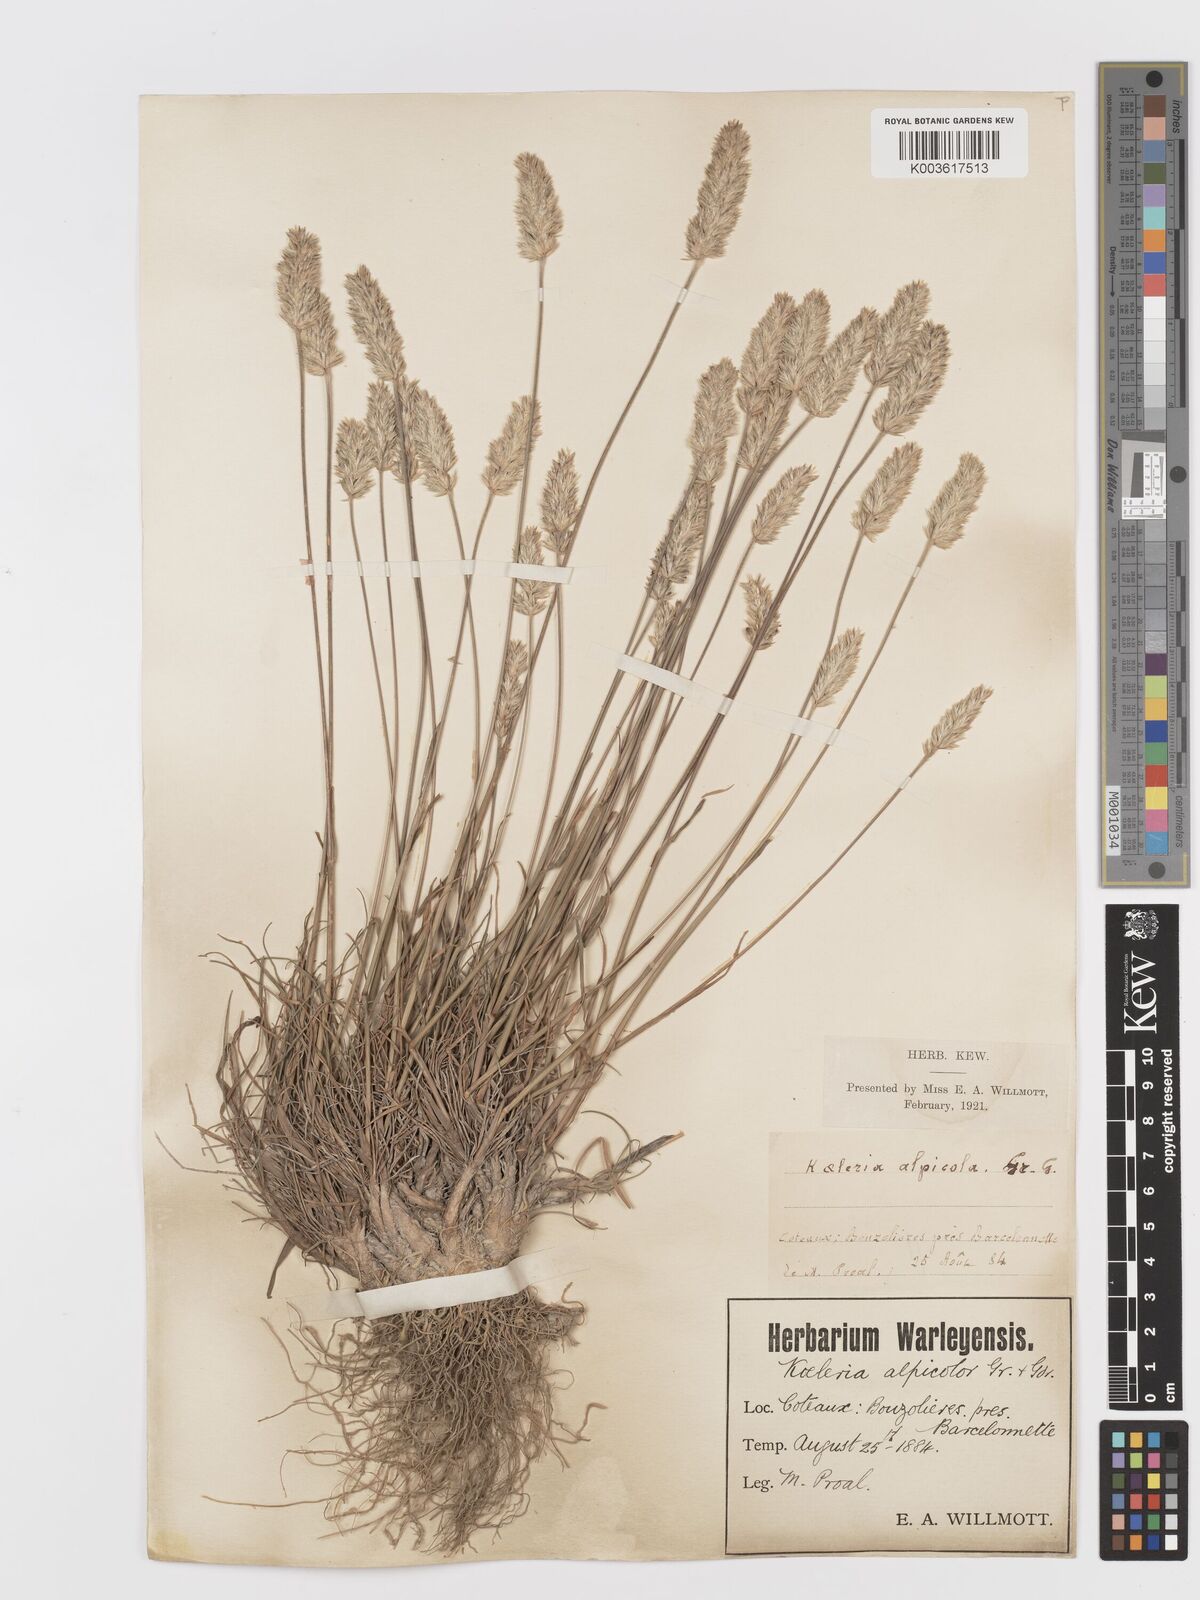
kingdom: Plantae
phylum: Tracheophyta
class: Liliopsida
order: Poales
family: Poaceae
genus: Koeleria
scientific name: Koeleria
